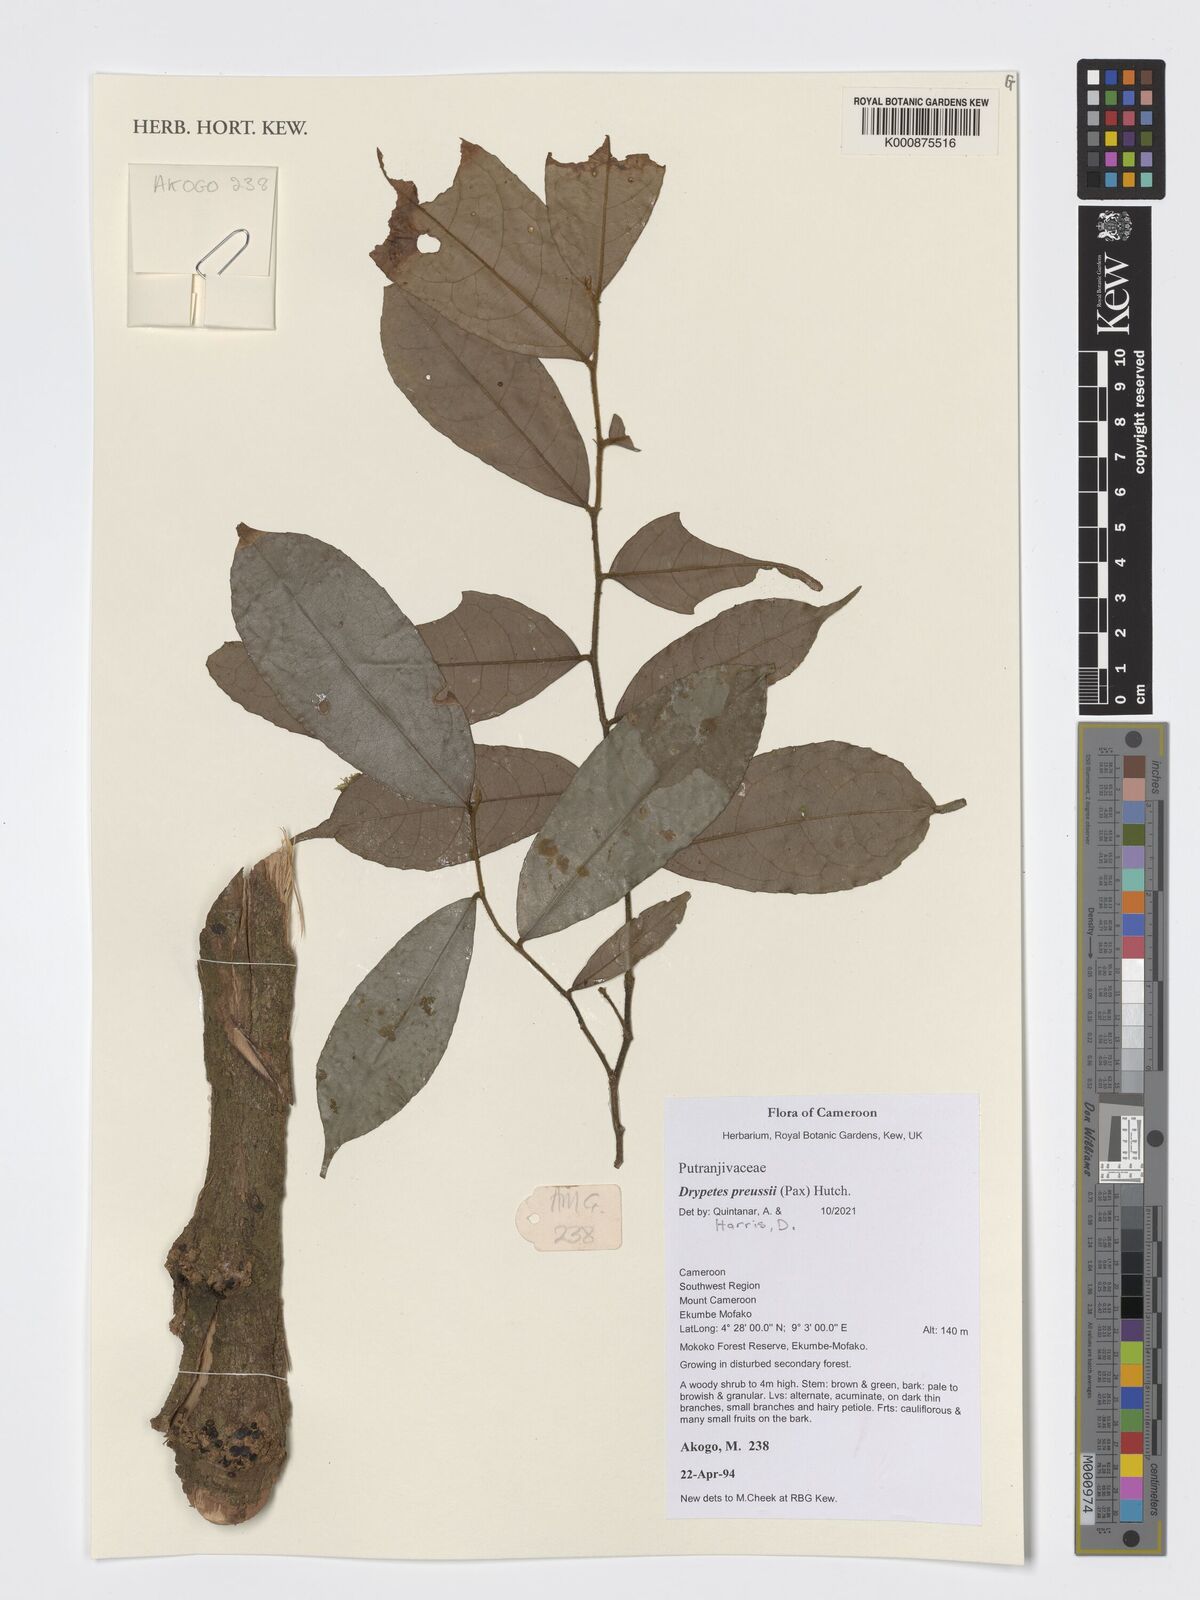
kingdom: Plantae
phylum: Tracheophyta
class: Magnoliopsida
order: Malpighiales
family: Putranjivaceae
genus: Drypetes
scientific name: Drypetes preussii
